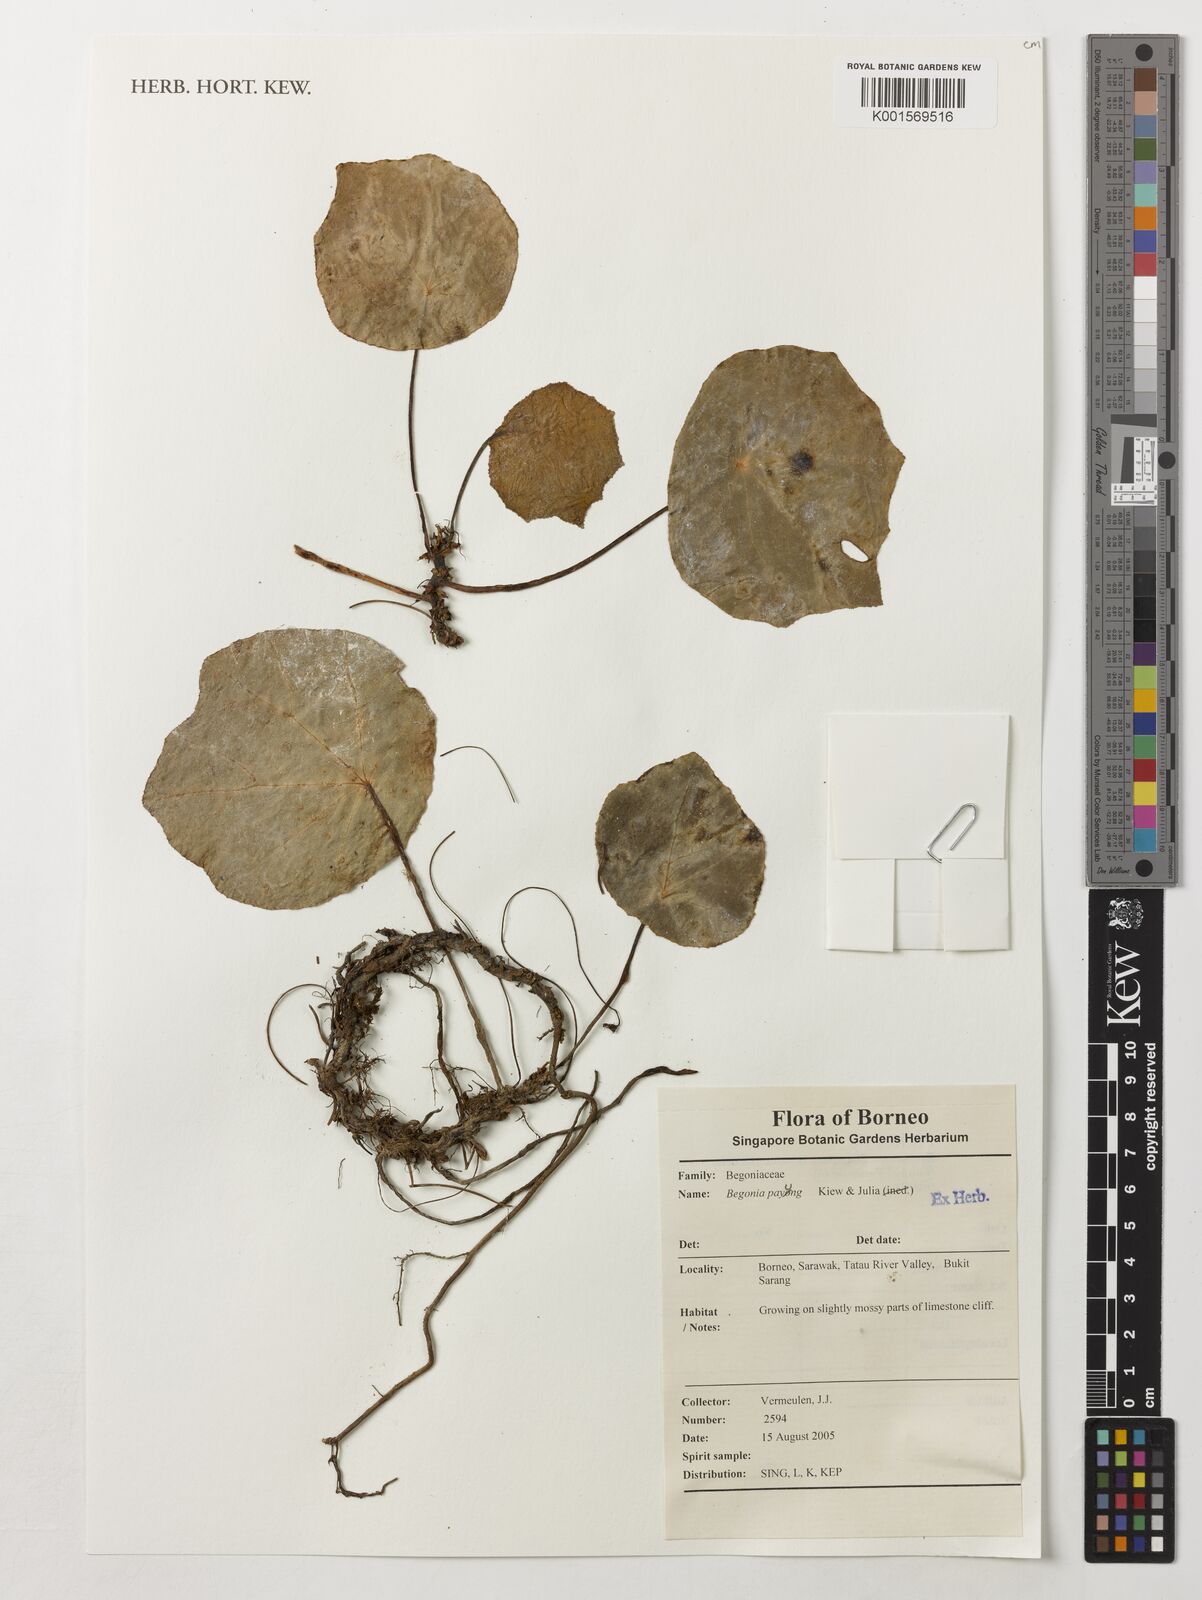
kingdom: Plantae
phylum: Tracheophyta
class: Magnoliopsida
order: Cucurbitales
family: Begoniaceae
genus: Begonia
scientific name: Begonia payung
